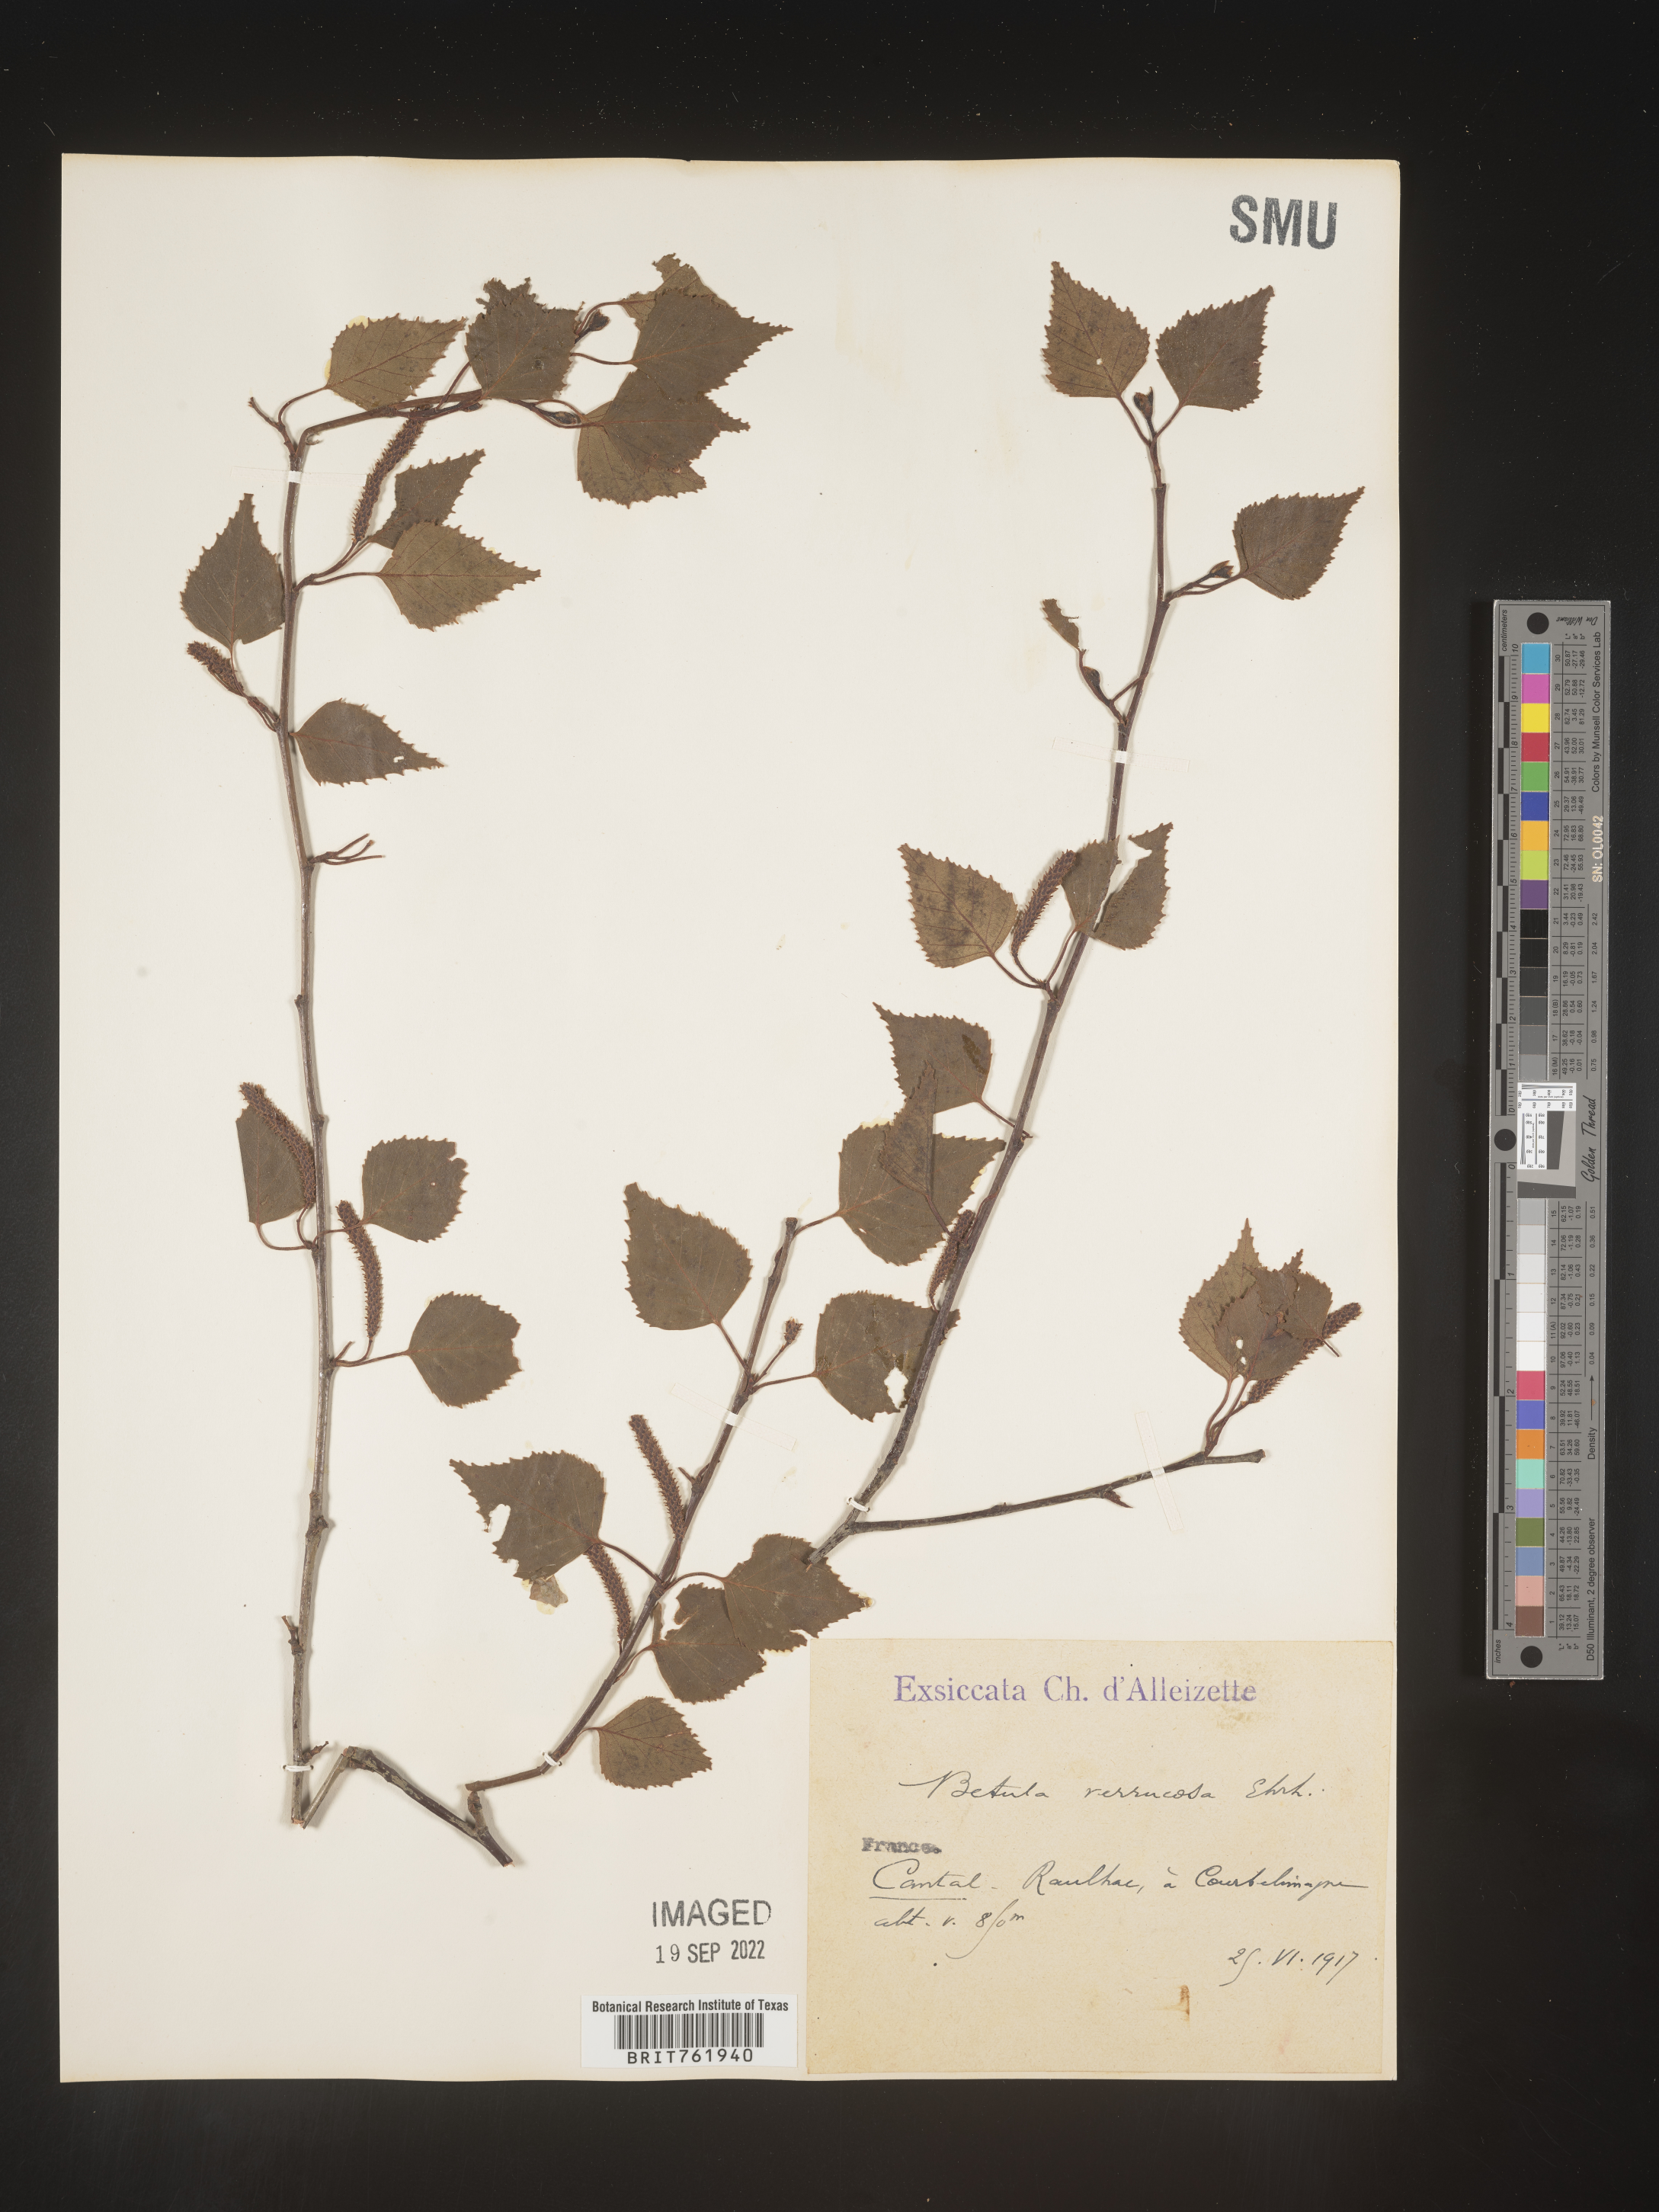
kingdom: Plantae
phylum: Tracheophyta
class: Magnoliopsida
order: Fagales
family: Betulaceae
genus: Betula
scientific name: Betula
